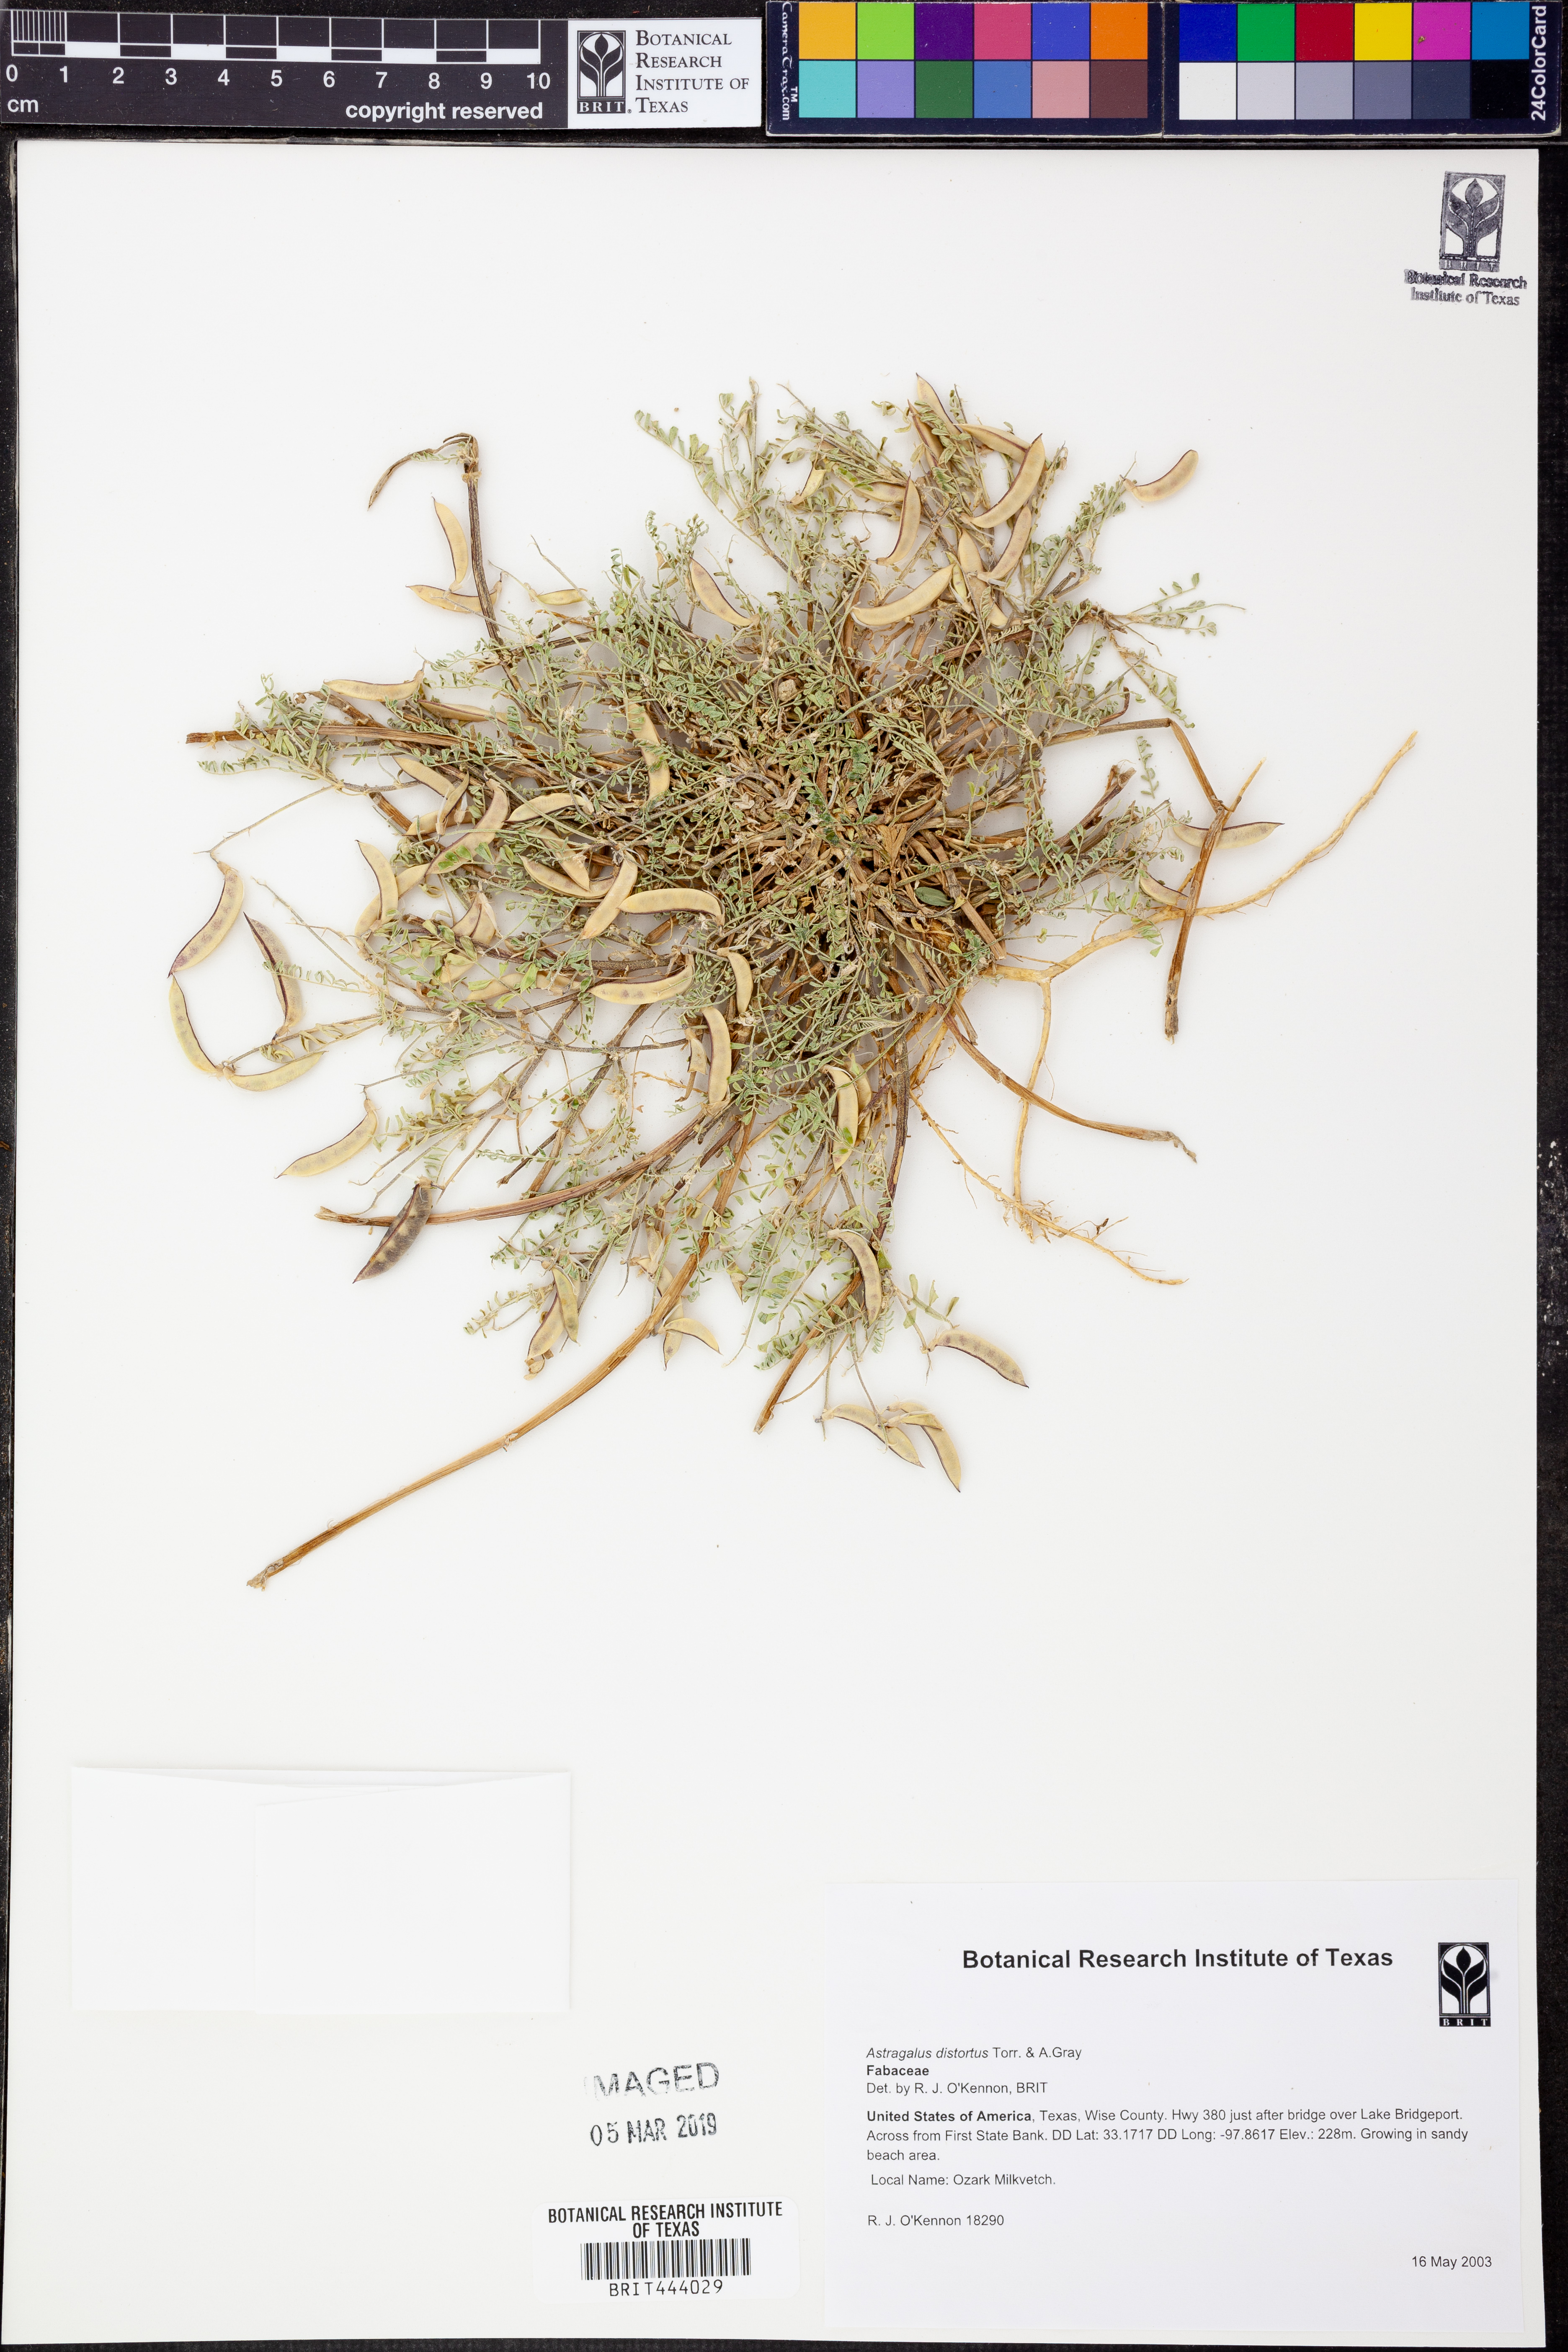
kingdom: Plantae
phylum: Tracheophyta
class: Magnoliopsida
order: Fabales
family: Fabaceae
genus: Astragalus
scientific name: Astragalus distortus
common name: Ozark milk-vetch
